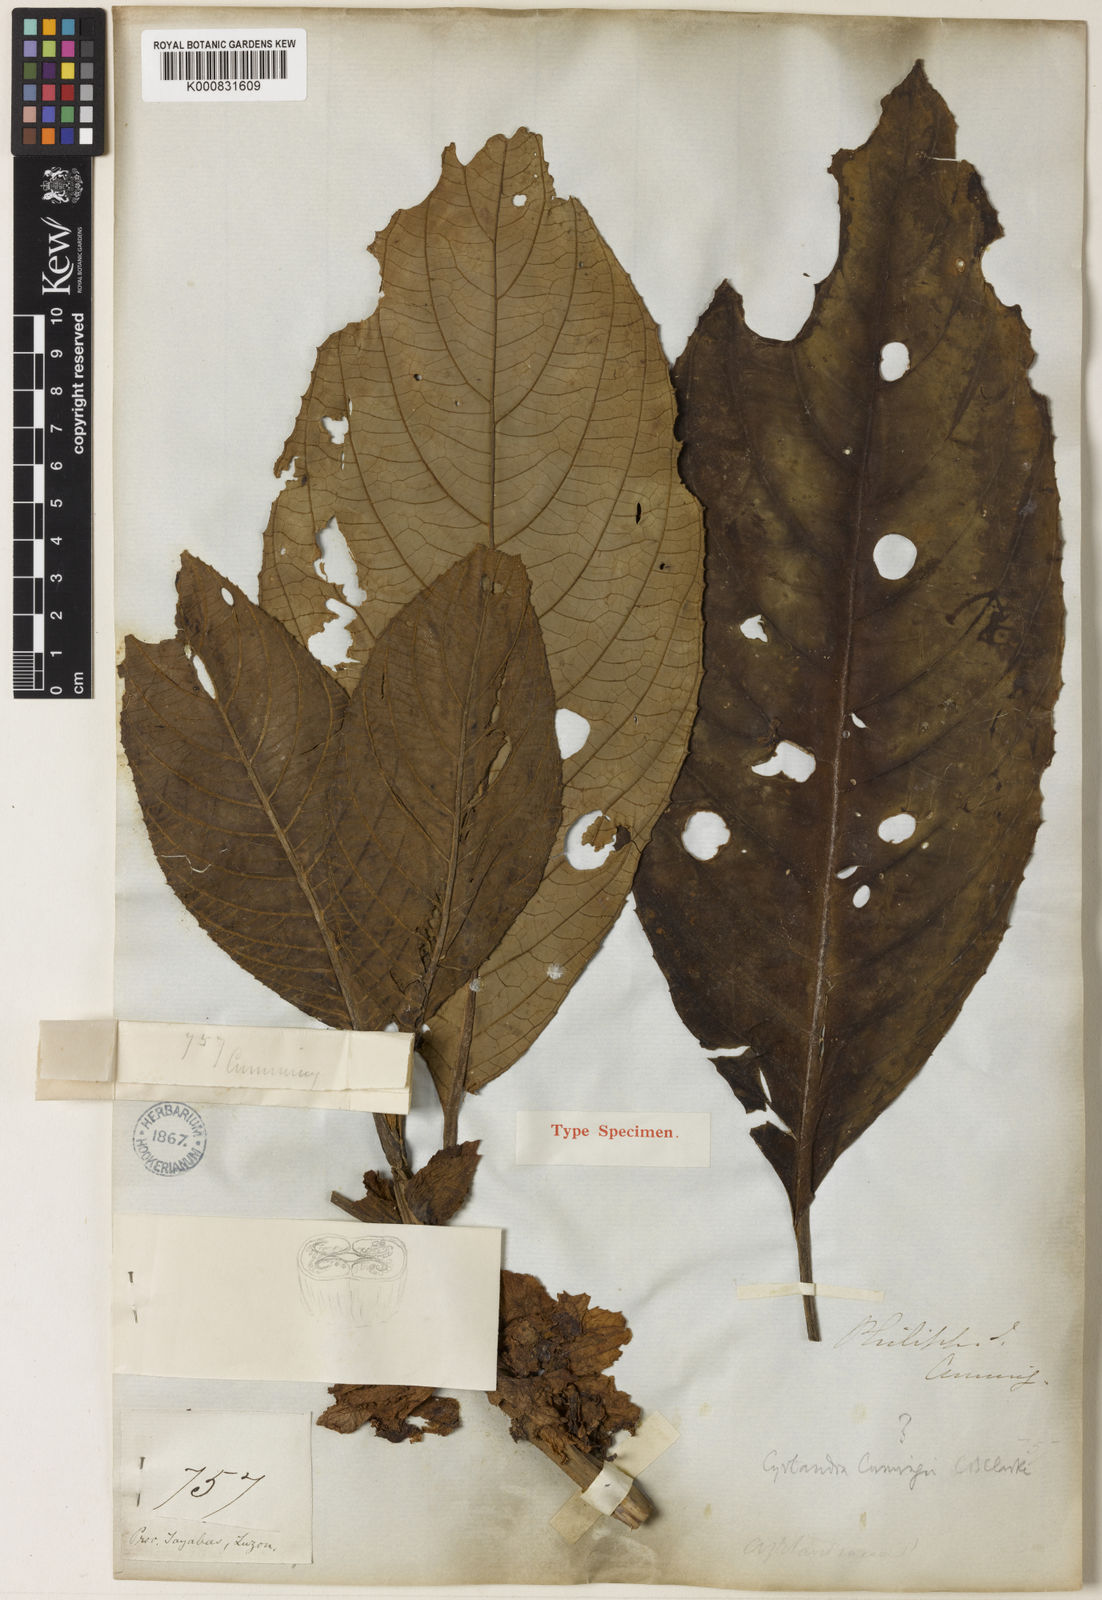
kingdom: Plantae
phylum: Tracheophyta
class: Magnoliopsida
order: Lamiales
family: Gesneriaceae
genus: Cyrtandra
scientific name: Cyrtandra cumingii
